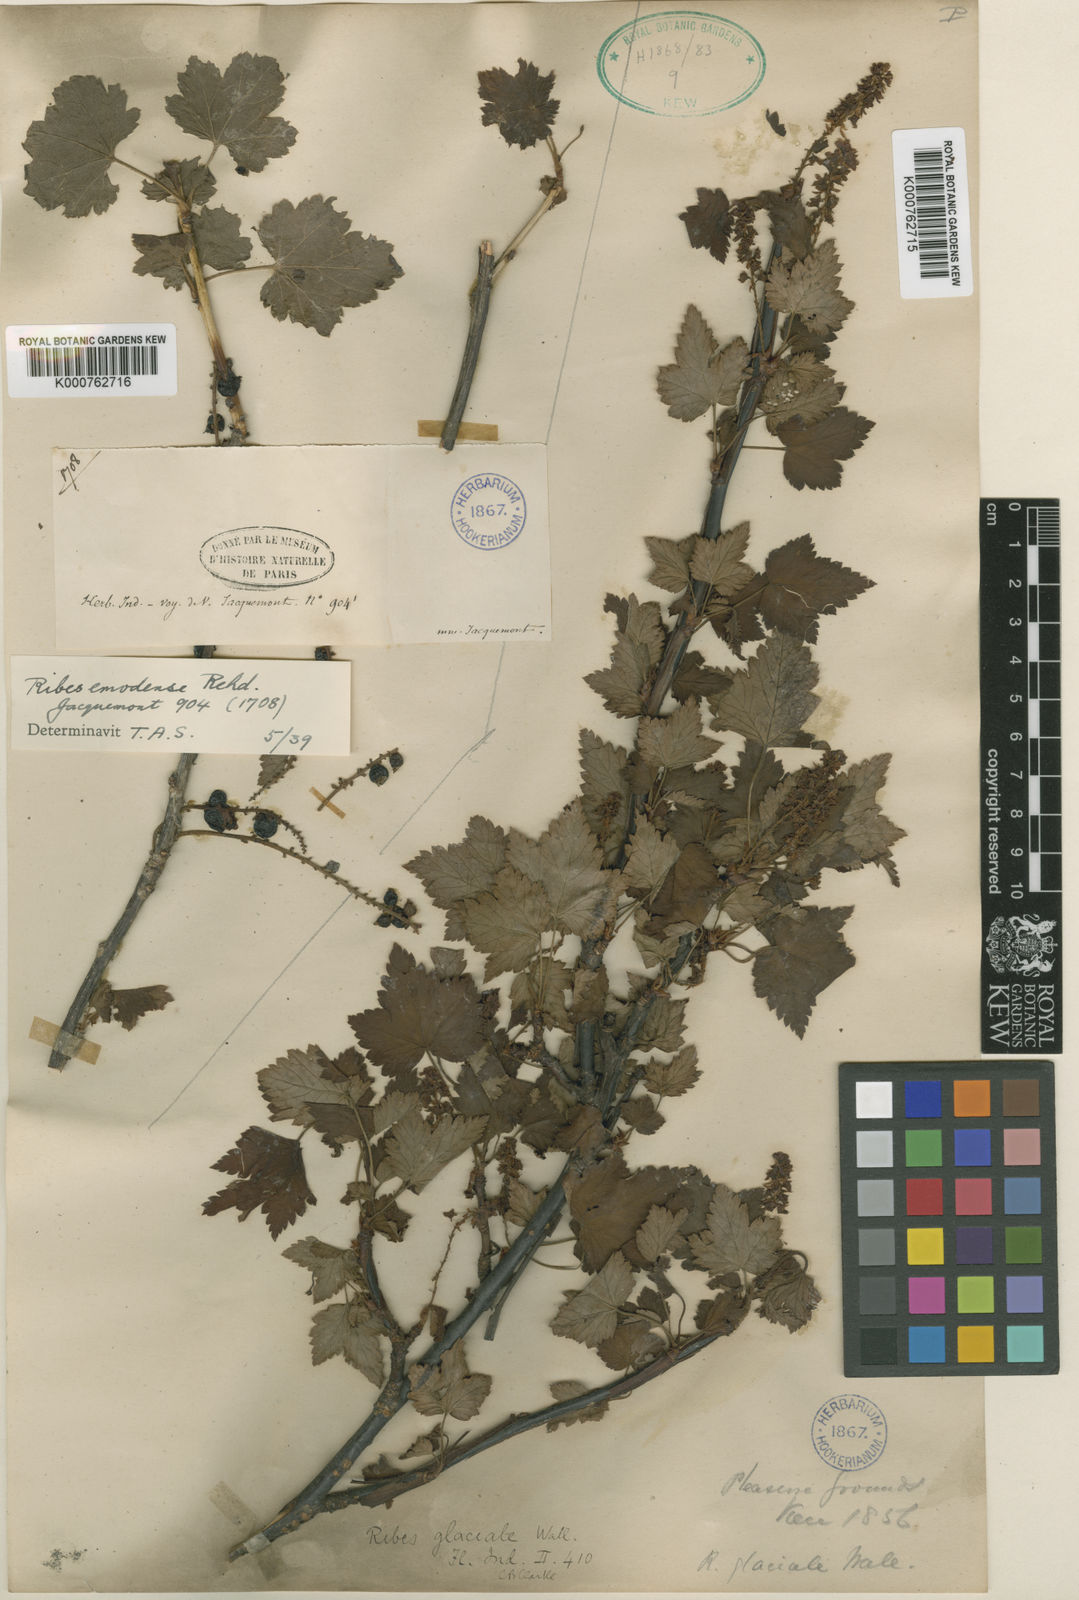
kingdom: Plantae
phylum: Tracheophyta
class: Magnoliopsida
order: Saxifragales
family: Grossulariaceae
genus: Ribes
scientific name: Ribes himalense
